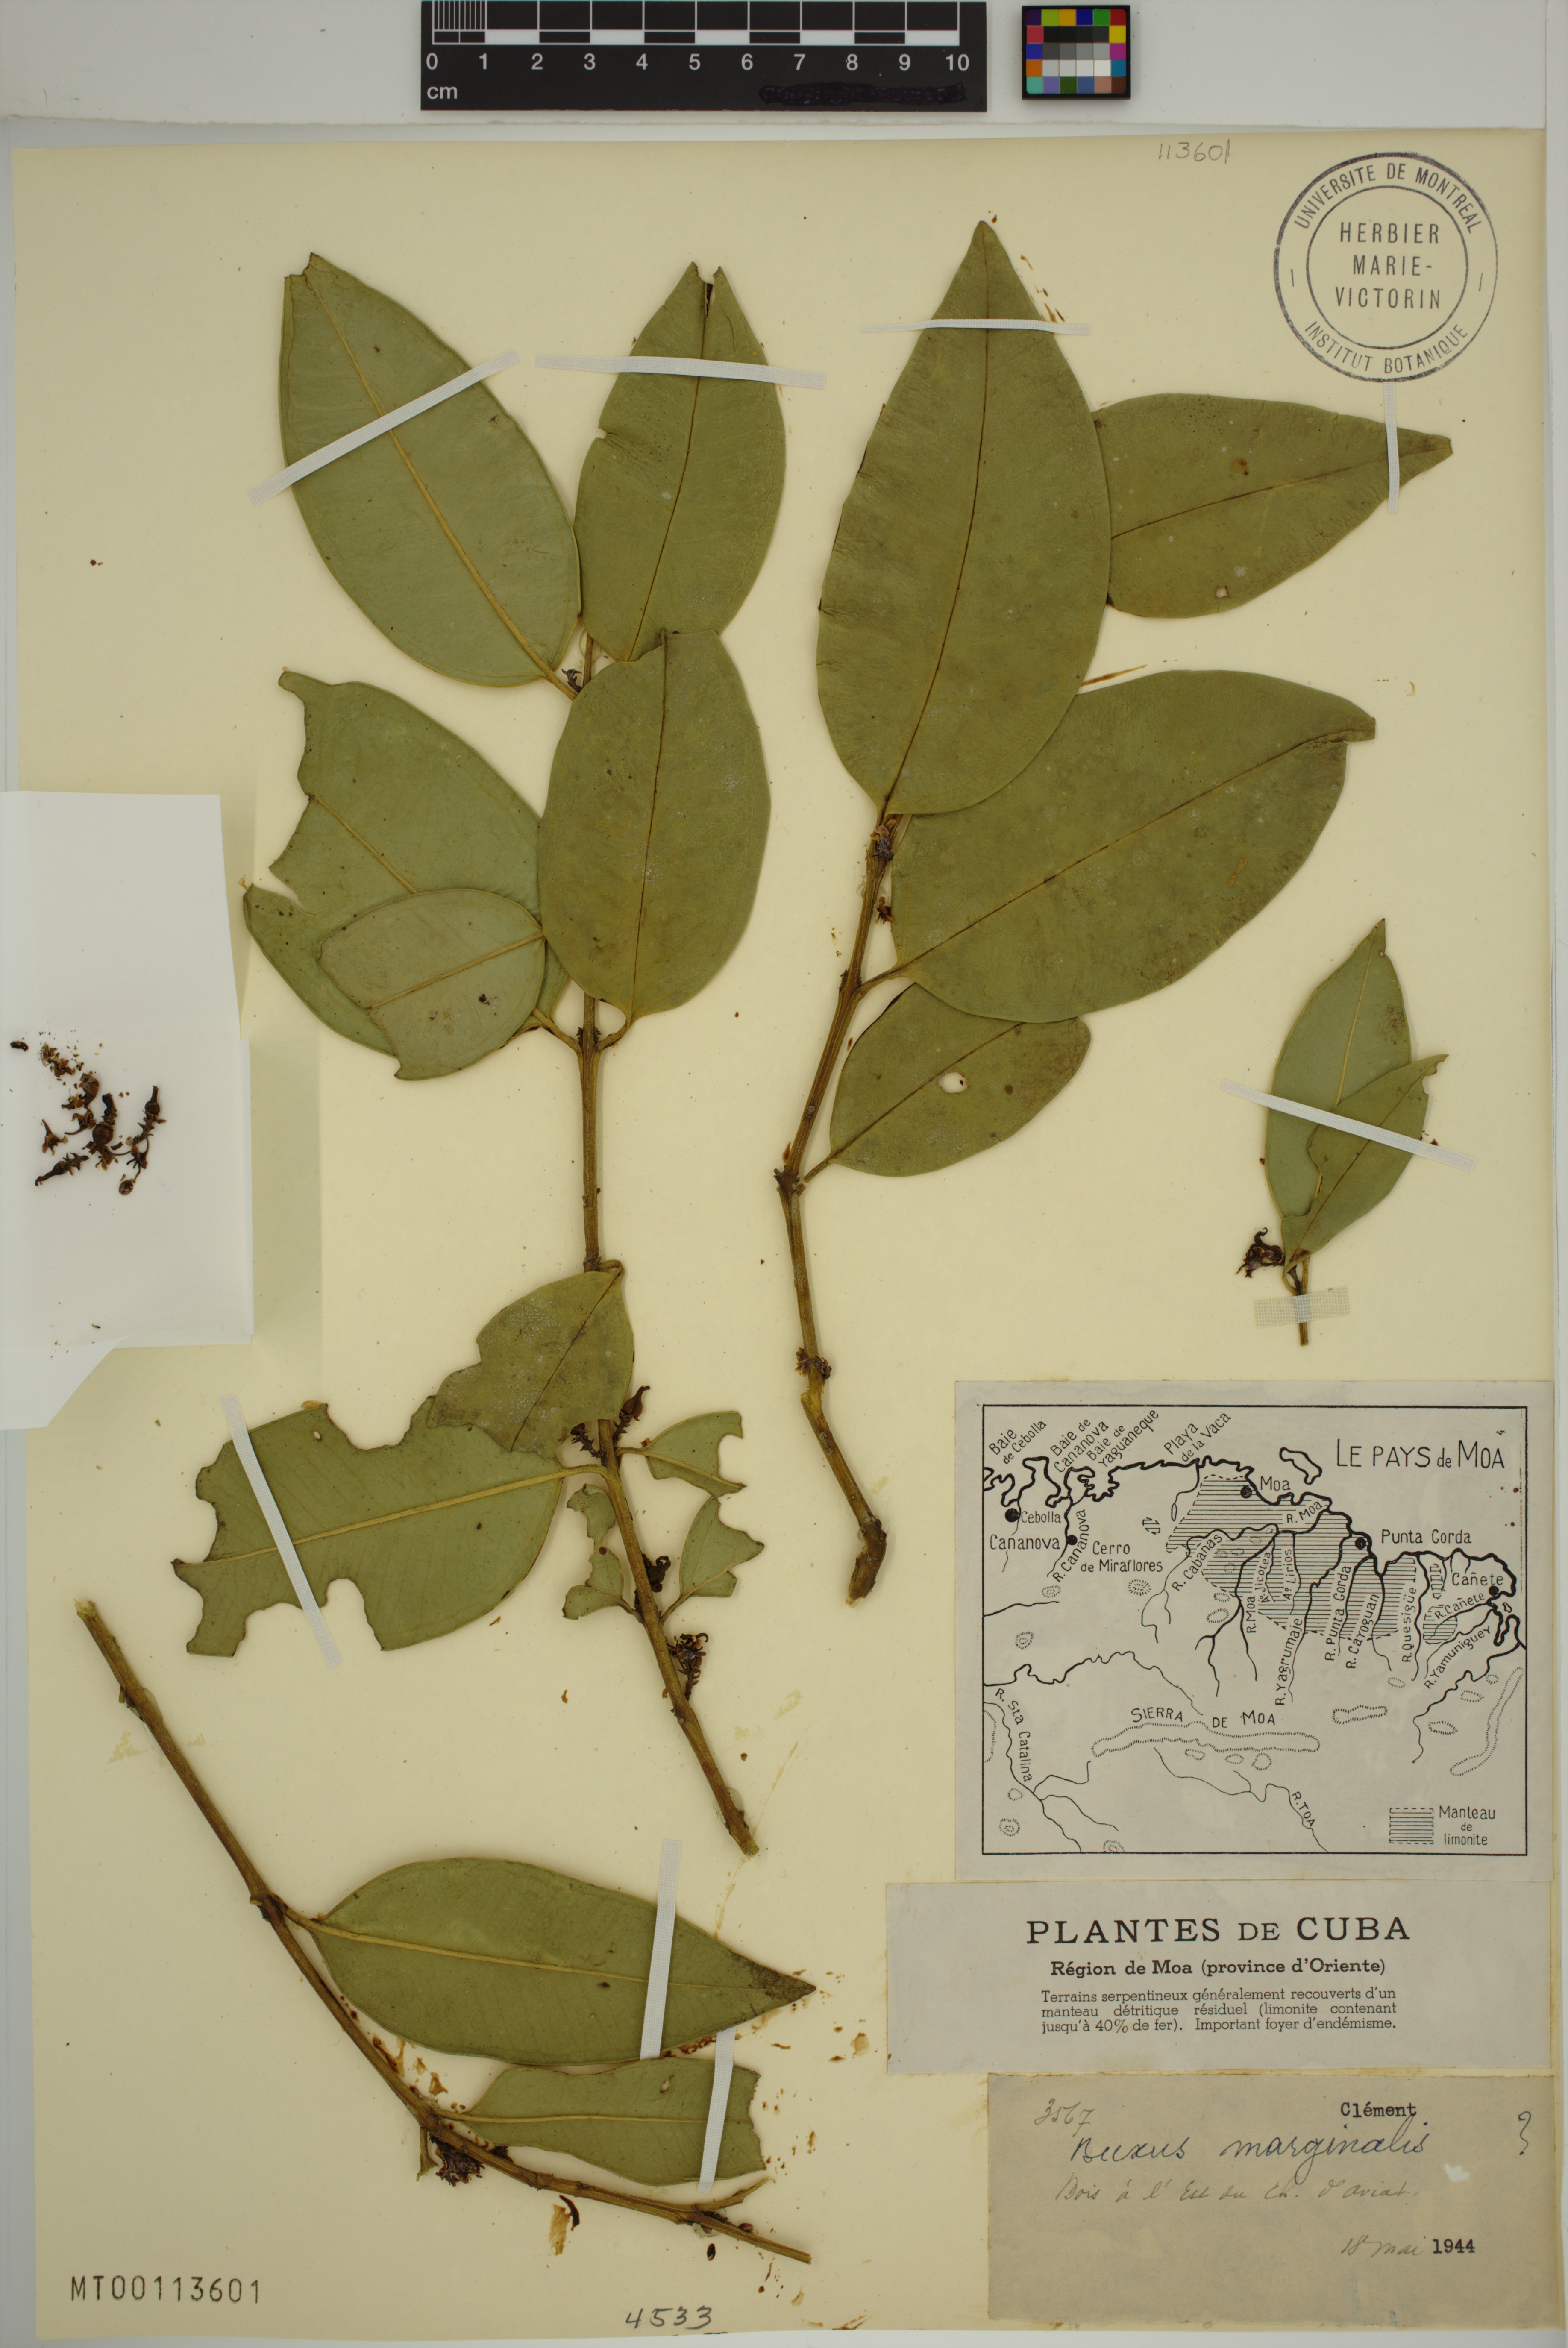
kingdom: Plantae
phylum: Tracheophyta
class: Magnoliopsida
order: Buxales
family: Buxaceae
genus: Buxus
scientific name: Buxus marginalis
